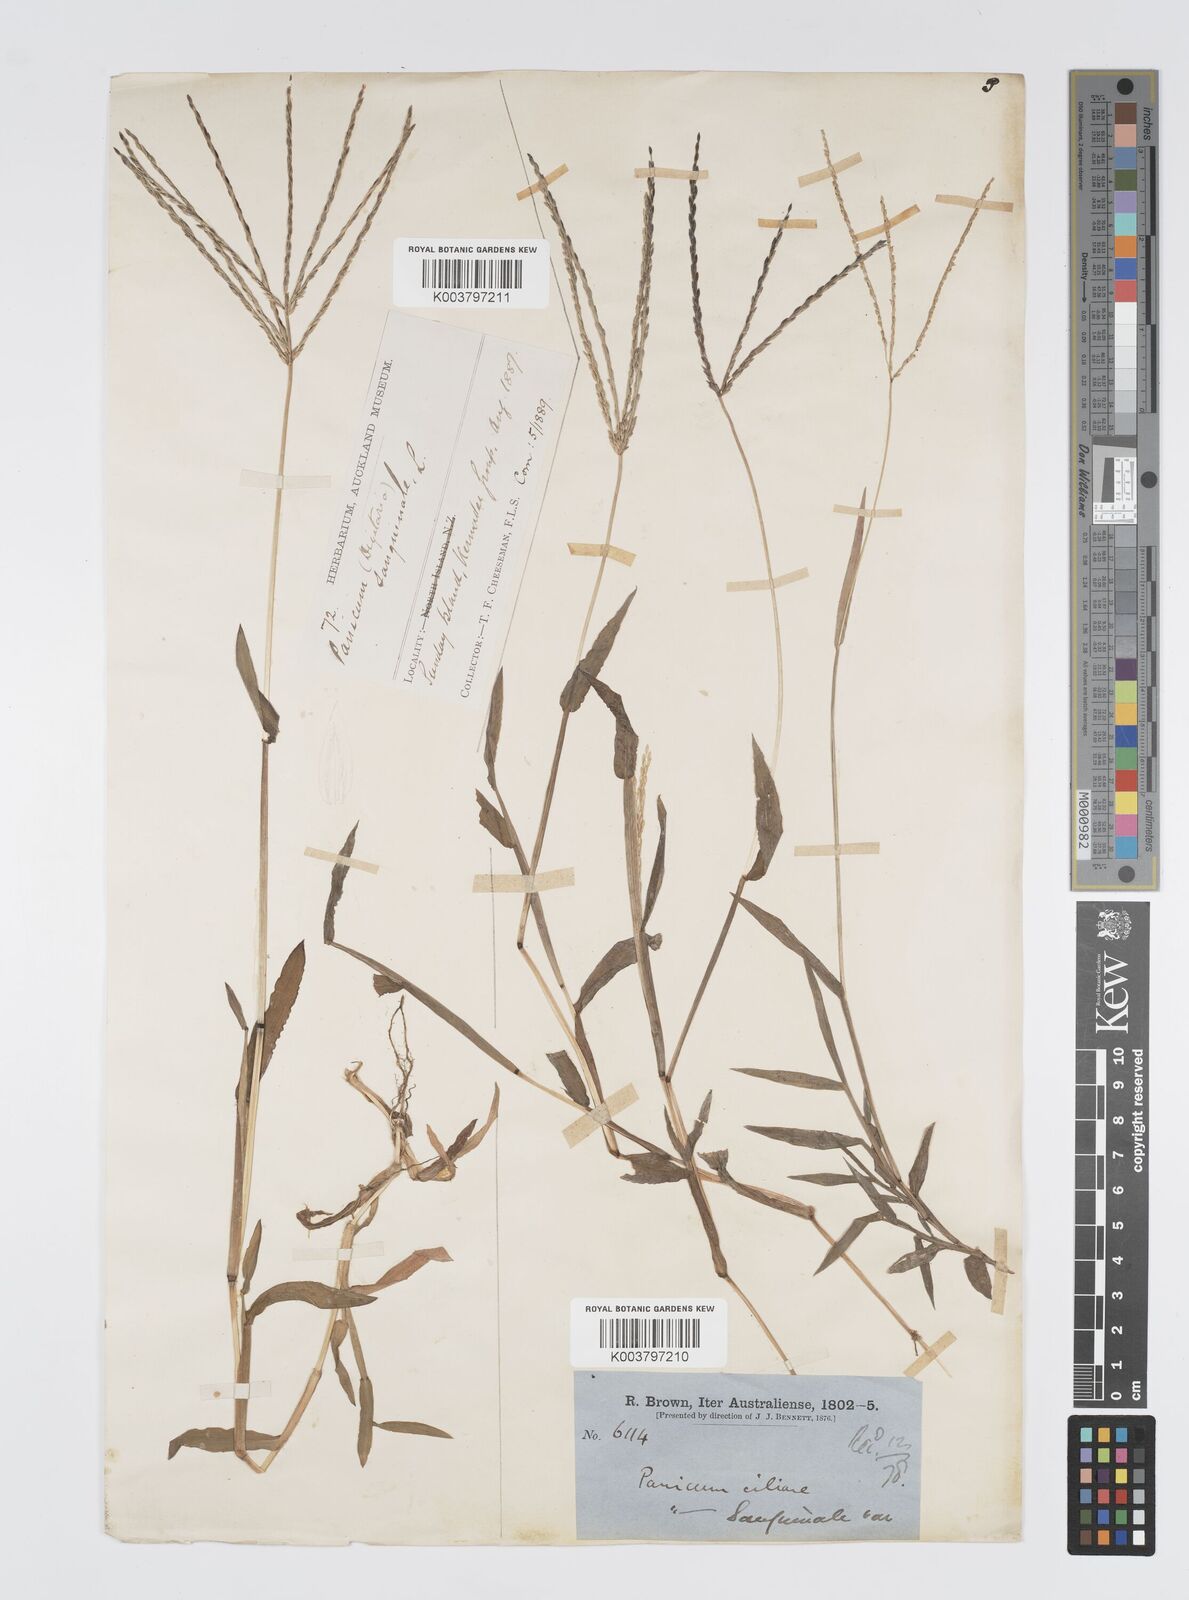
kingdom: Plantae
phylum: Tracheophyta
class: Liliopsida
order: Poales
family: Poaceae
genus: Digitaria
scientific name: Digitaria setigera
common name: East indian crabgrass
